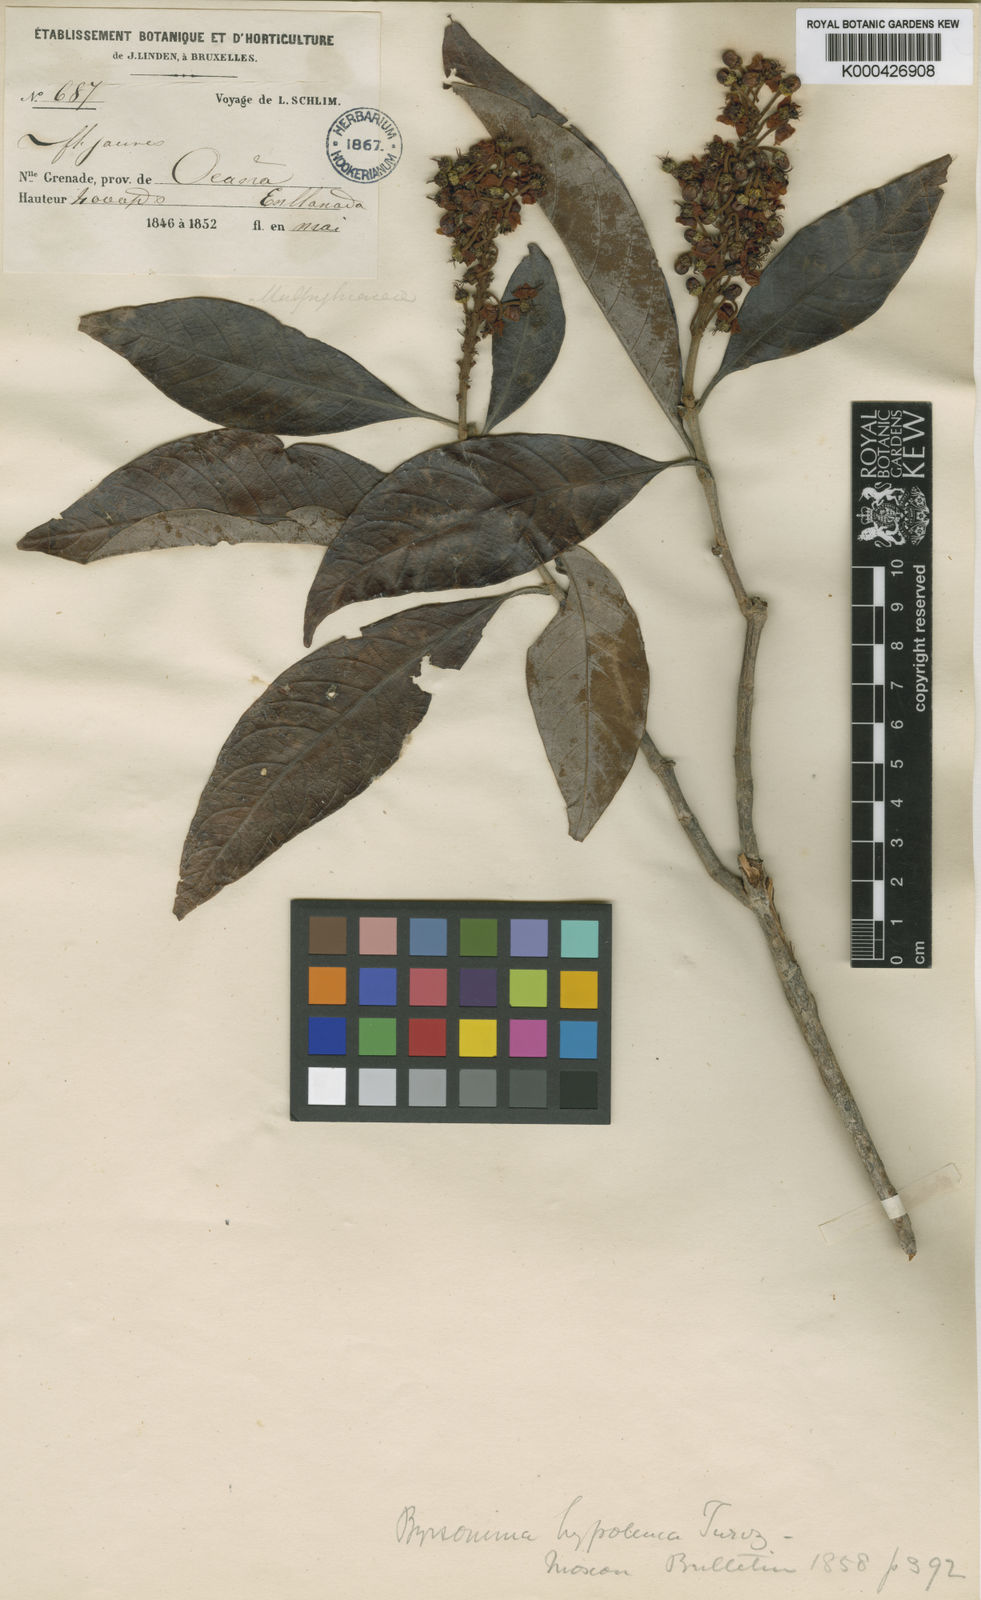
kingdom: Plantae
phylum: Tracheophyta
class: Magnoliopsida
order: Malpighiales
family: Malpighiaceae
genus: Byrsonima
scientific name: Byrsonima hypoleuca
